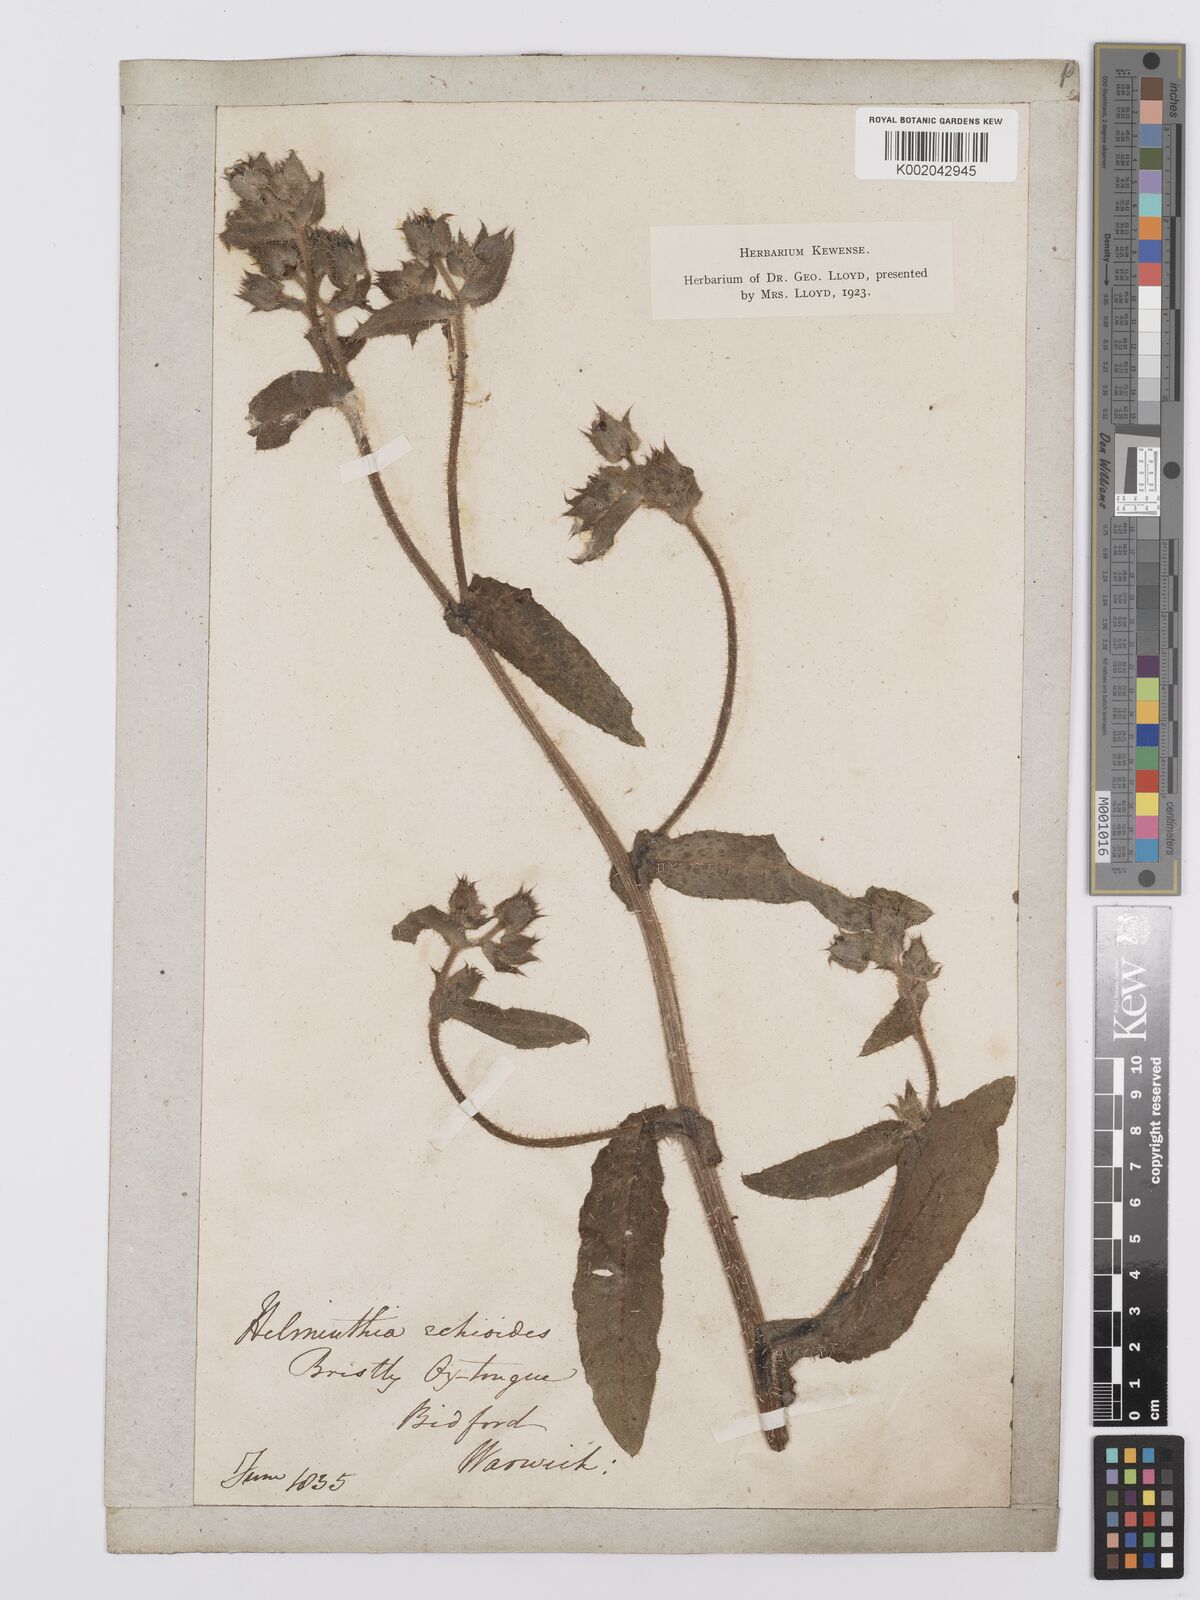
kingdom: Plantae
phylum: Tracheophyta
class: Magnoliopsida
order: Asterales
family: Asteraceae
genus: Helminthotheca
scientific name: Helminthotheca echioides
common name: Ox-tongue
